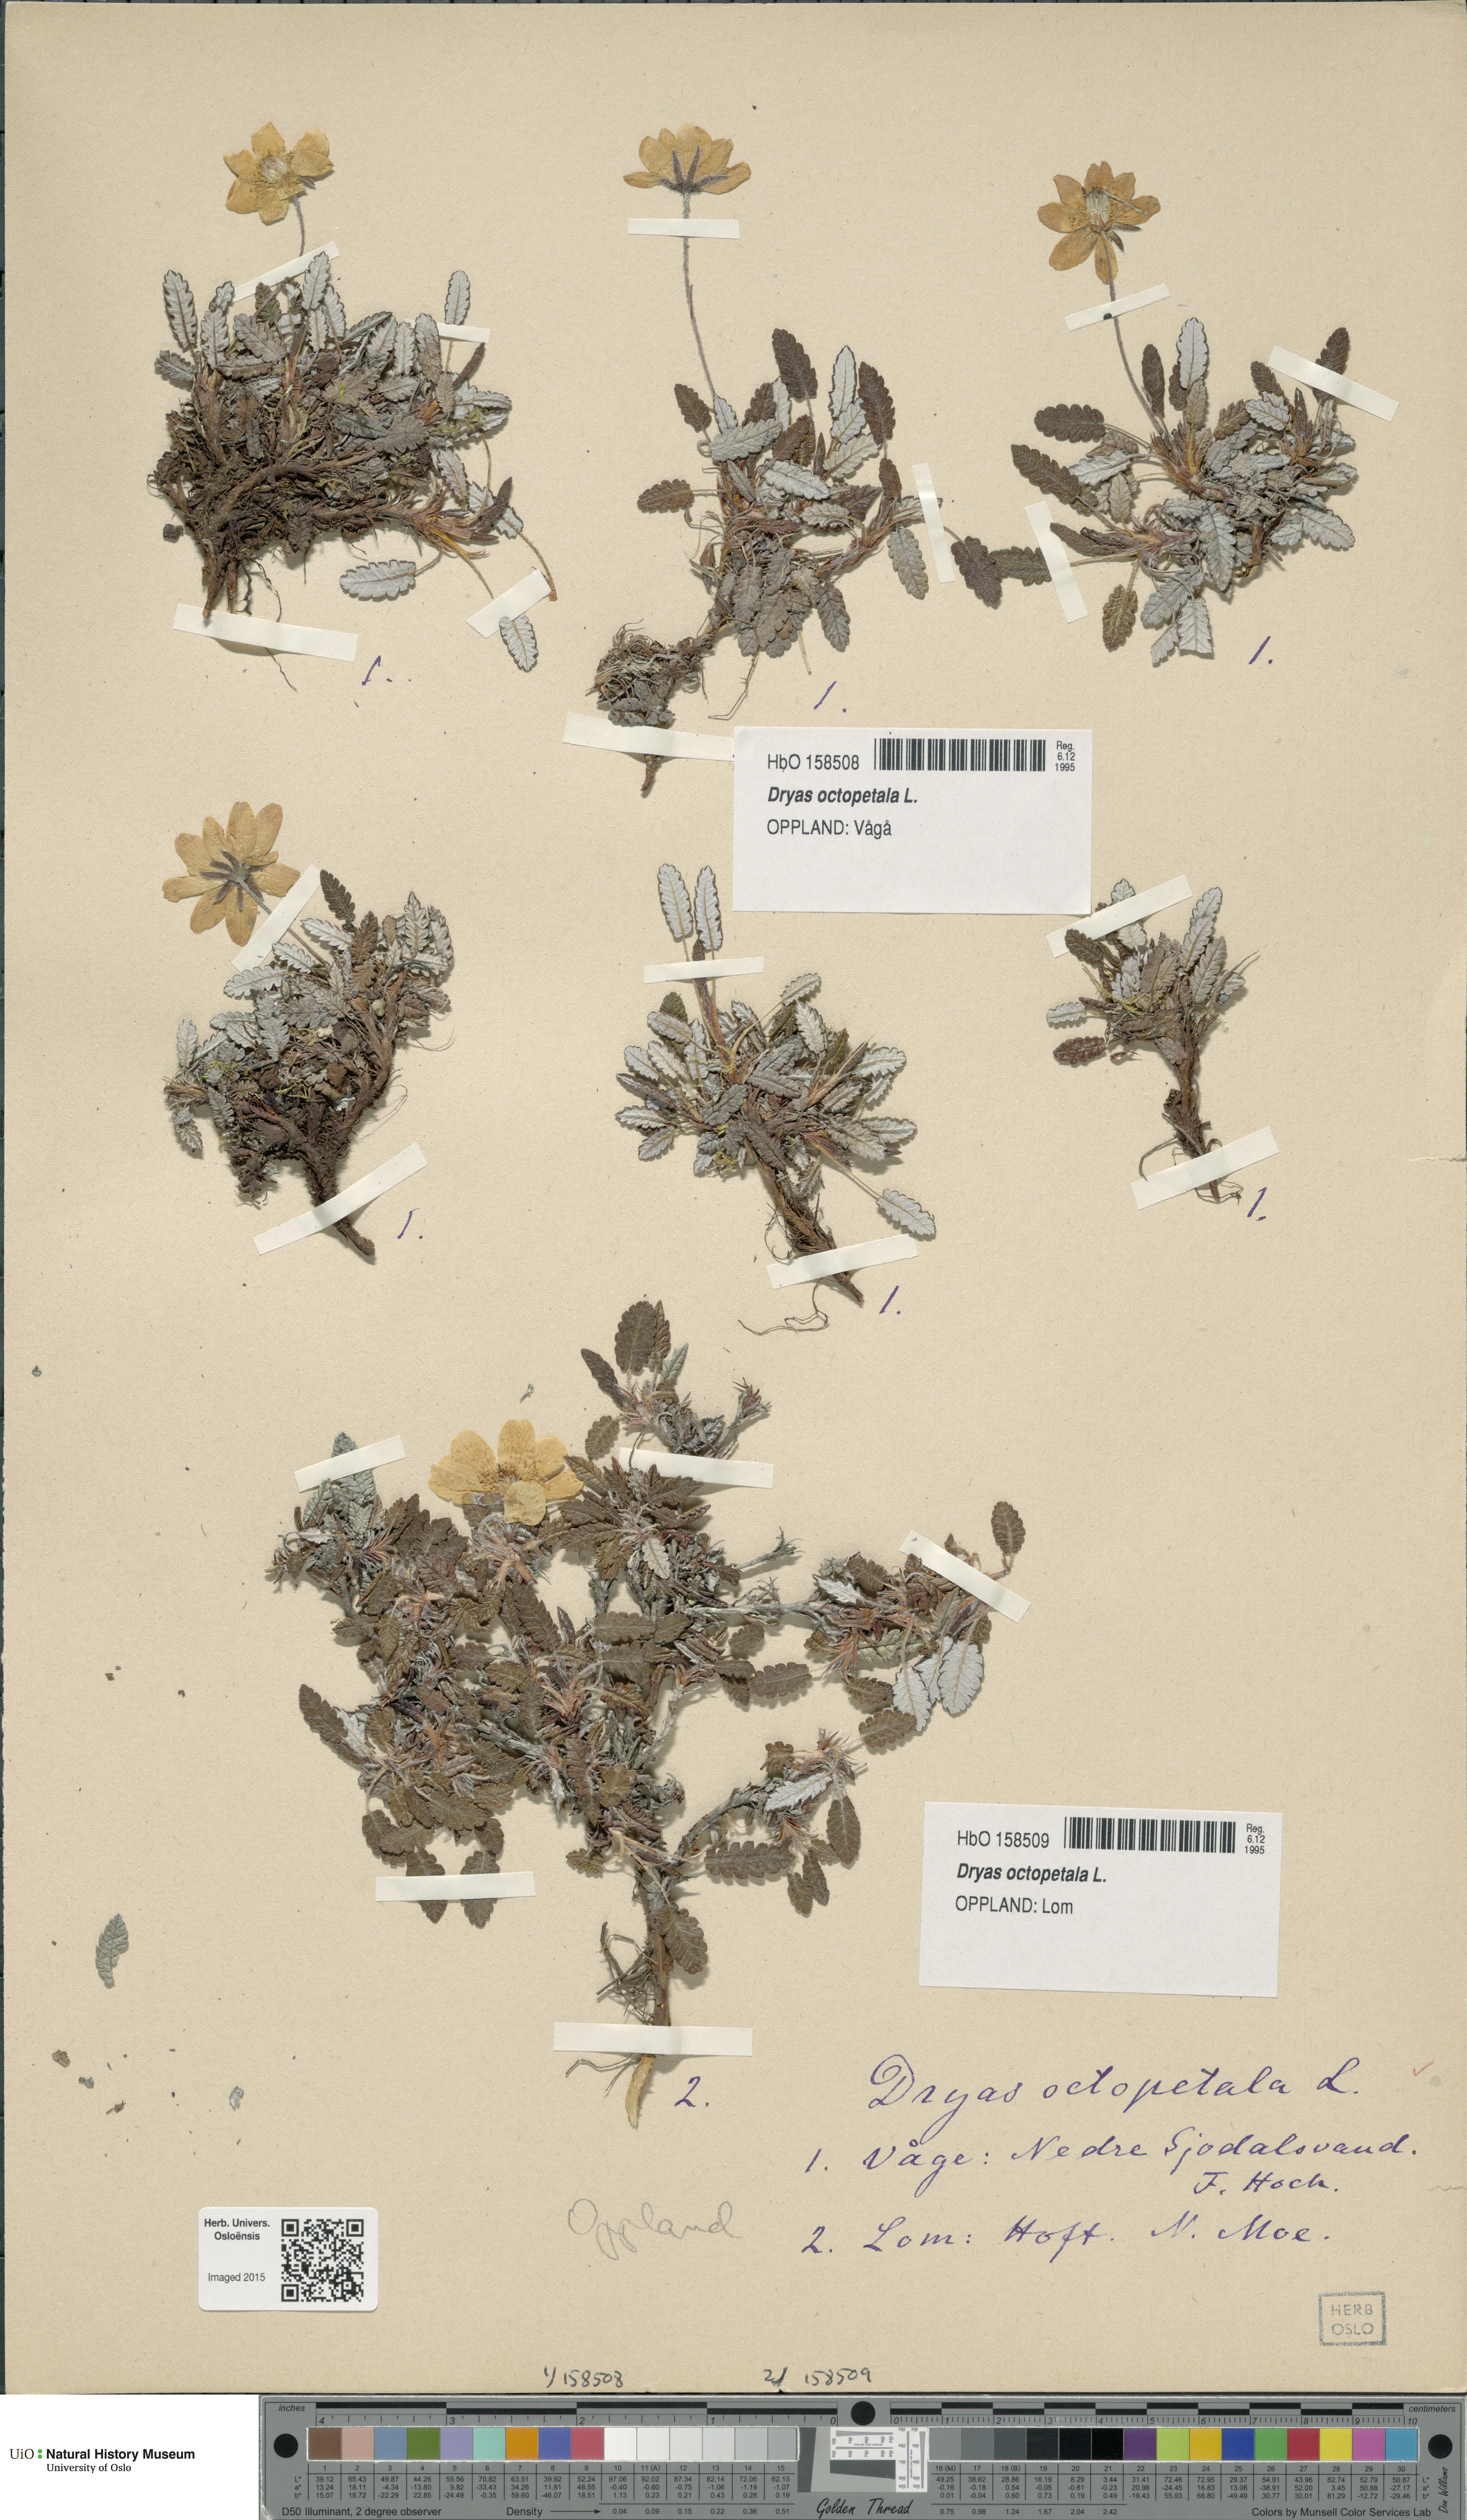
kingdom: Plantae
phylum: Tracheophyta
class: Magnoliopsida
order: Rosales
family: Rosaceae
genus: Dryas
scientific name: Dryas octopetala
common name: Eight-petal mountain-avens
